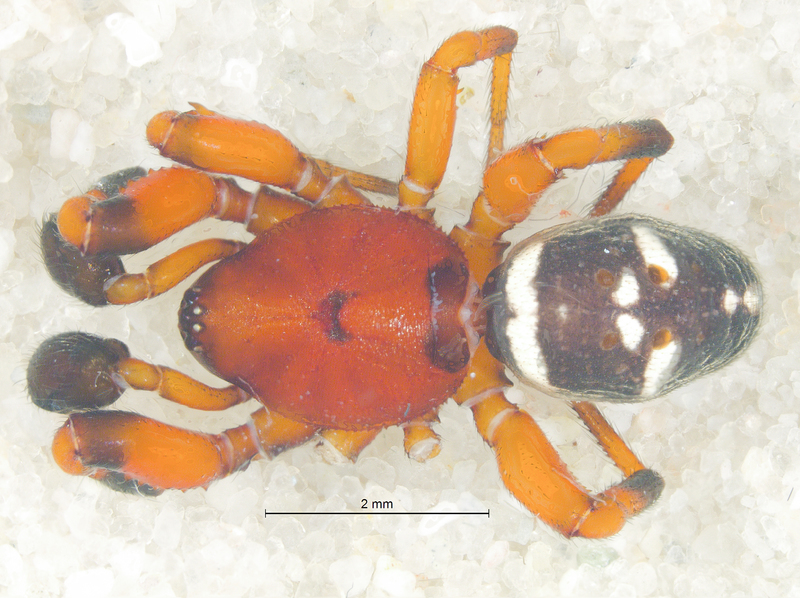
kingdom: Animalia
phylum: Arthropoda
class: Arachnida
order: Araneae
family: Theridiidae
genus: Asagena
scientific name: Asagena phalerata
